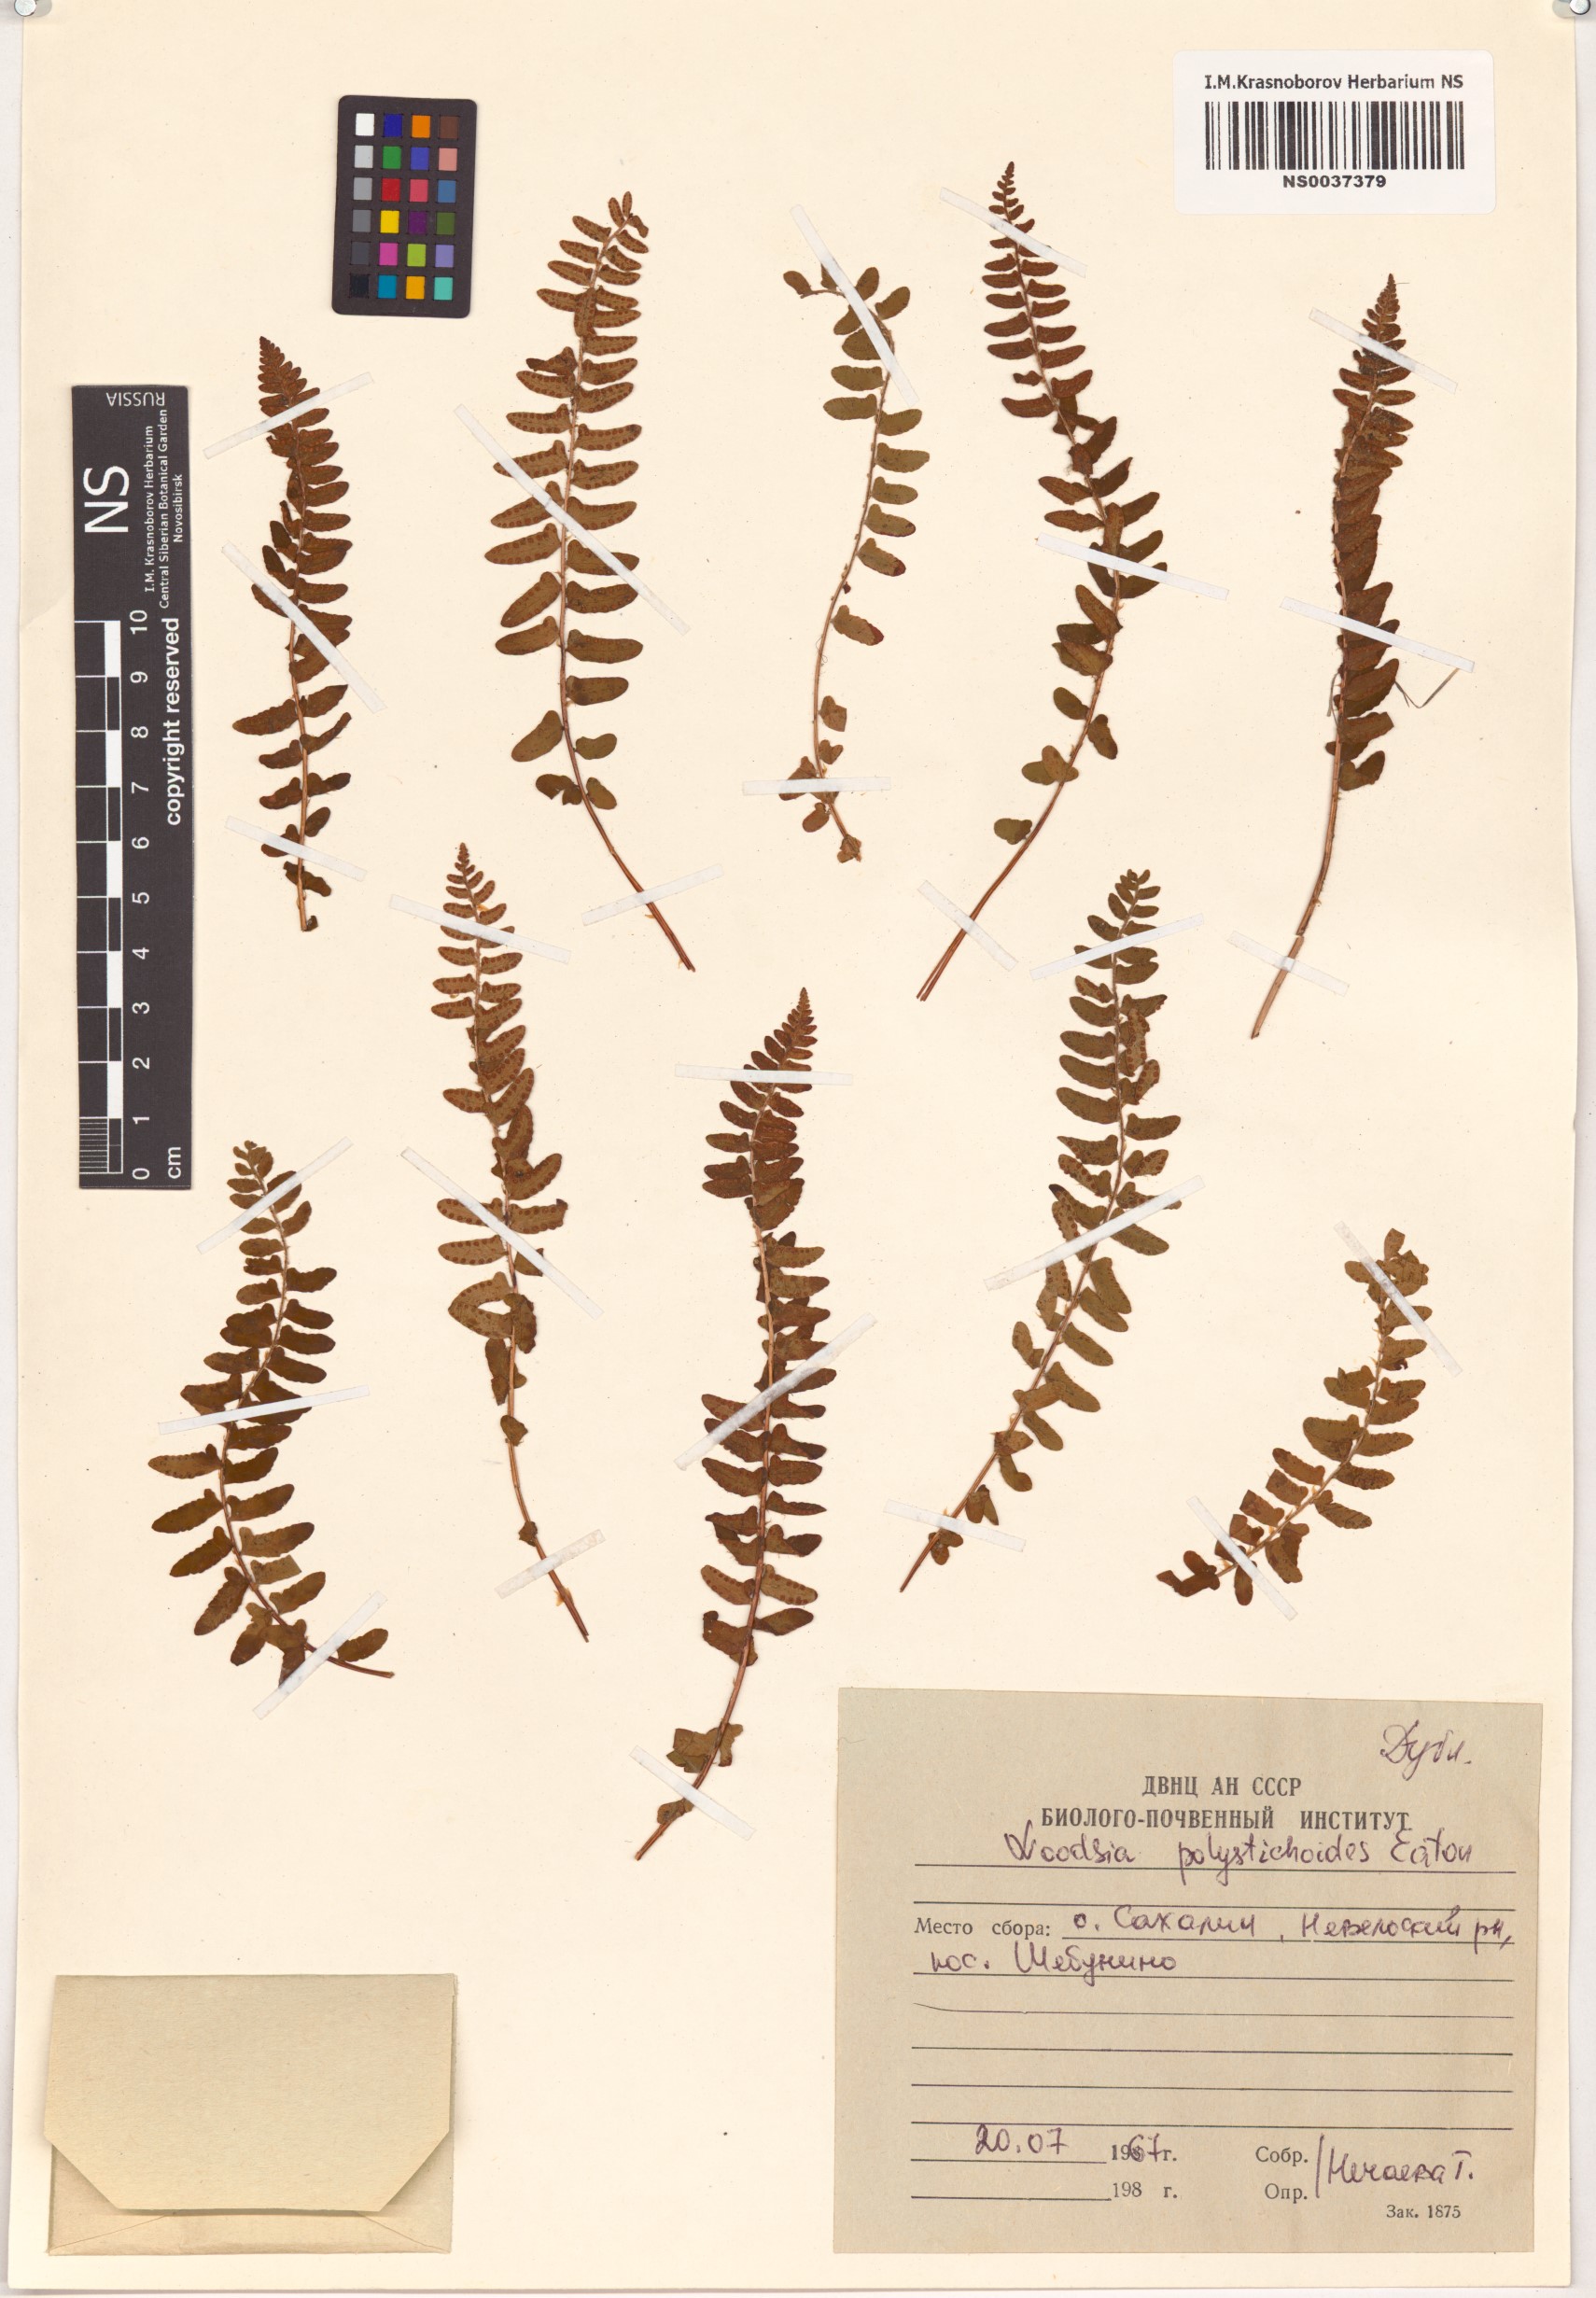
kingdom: Plantae
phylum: Tracheophyta
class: Polypodiopsida
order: Polypodiales
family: Woodsiaceae
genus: Woodsia
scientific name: Woodsia polystichoides
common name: Holly fern woodsia
